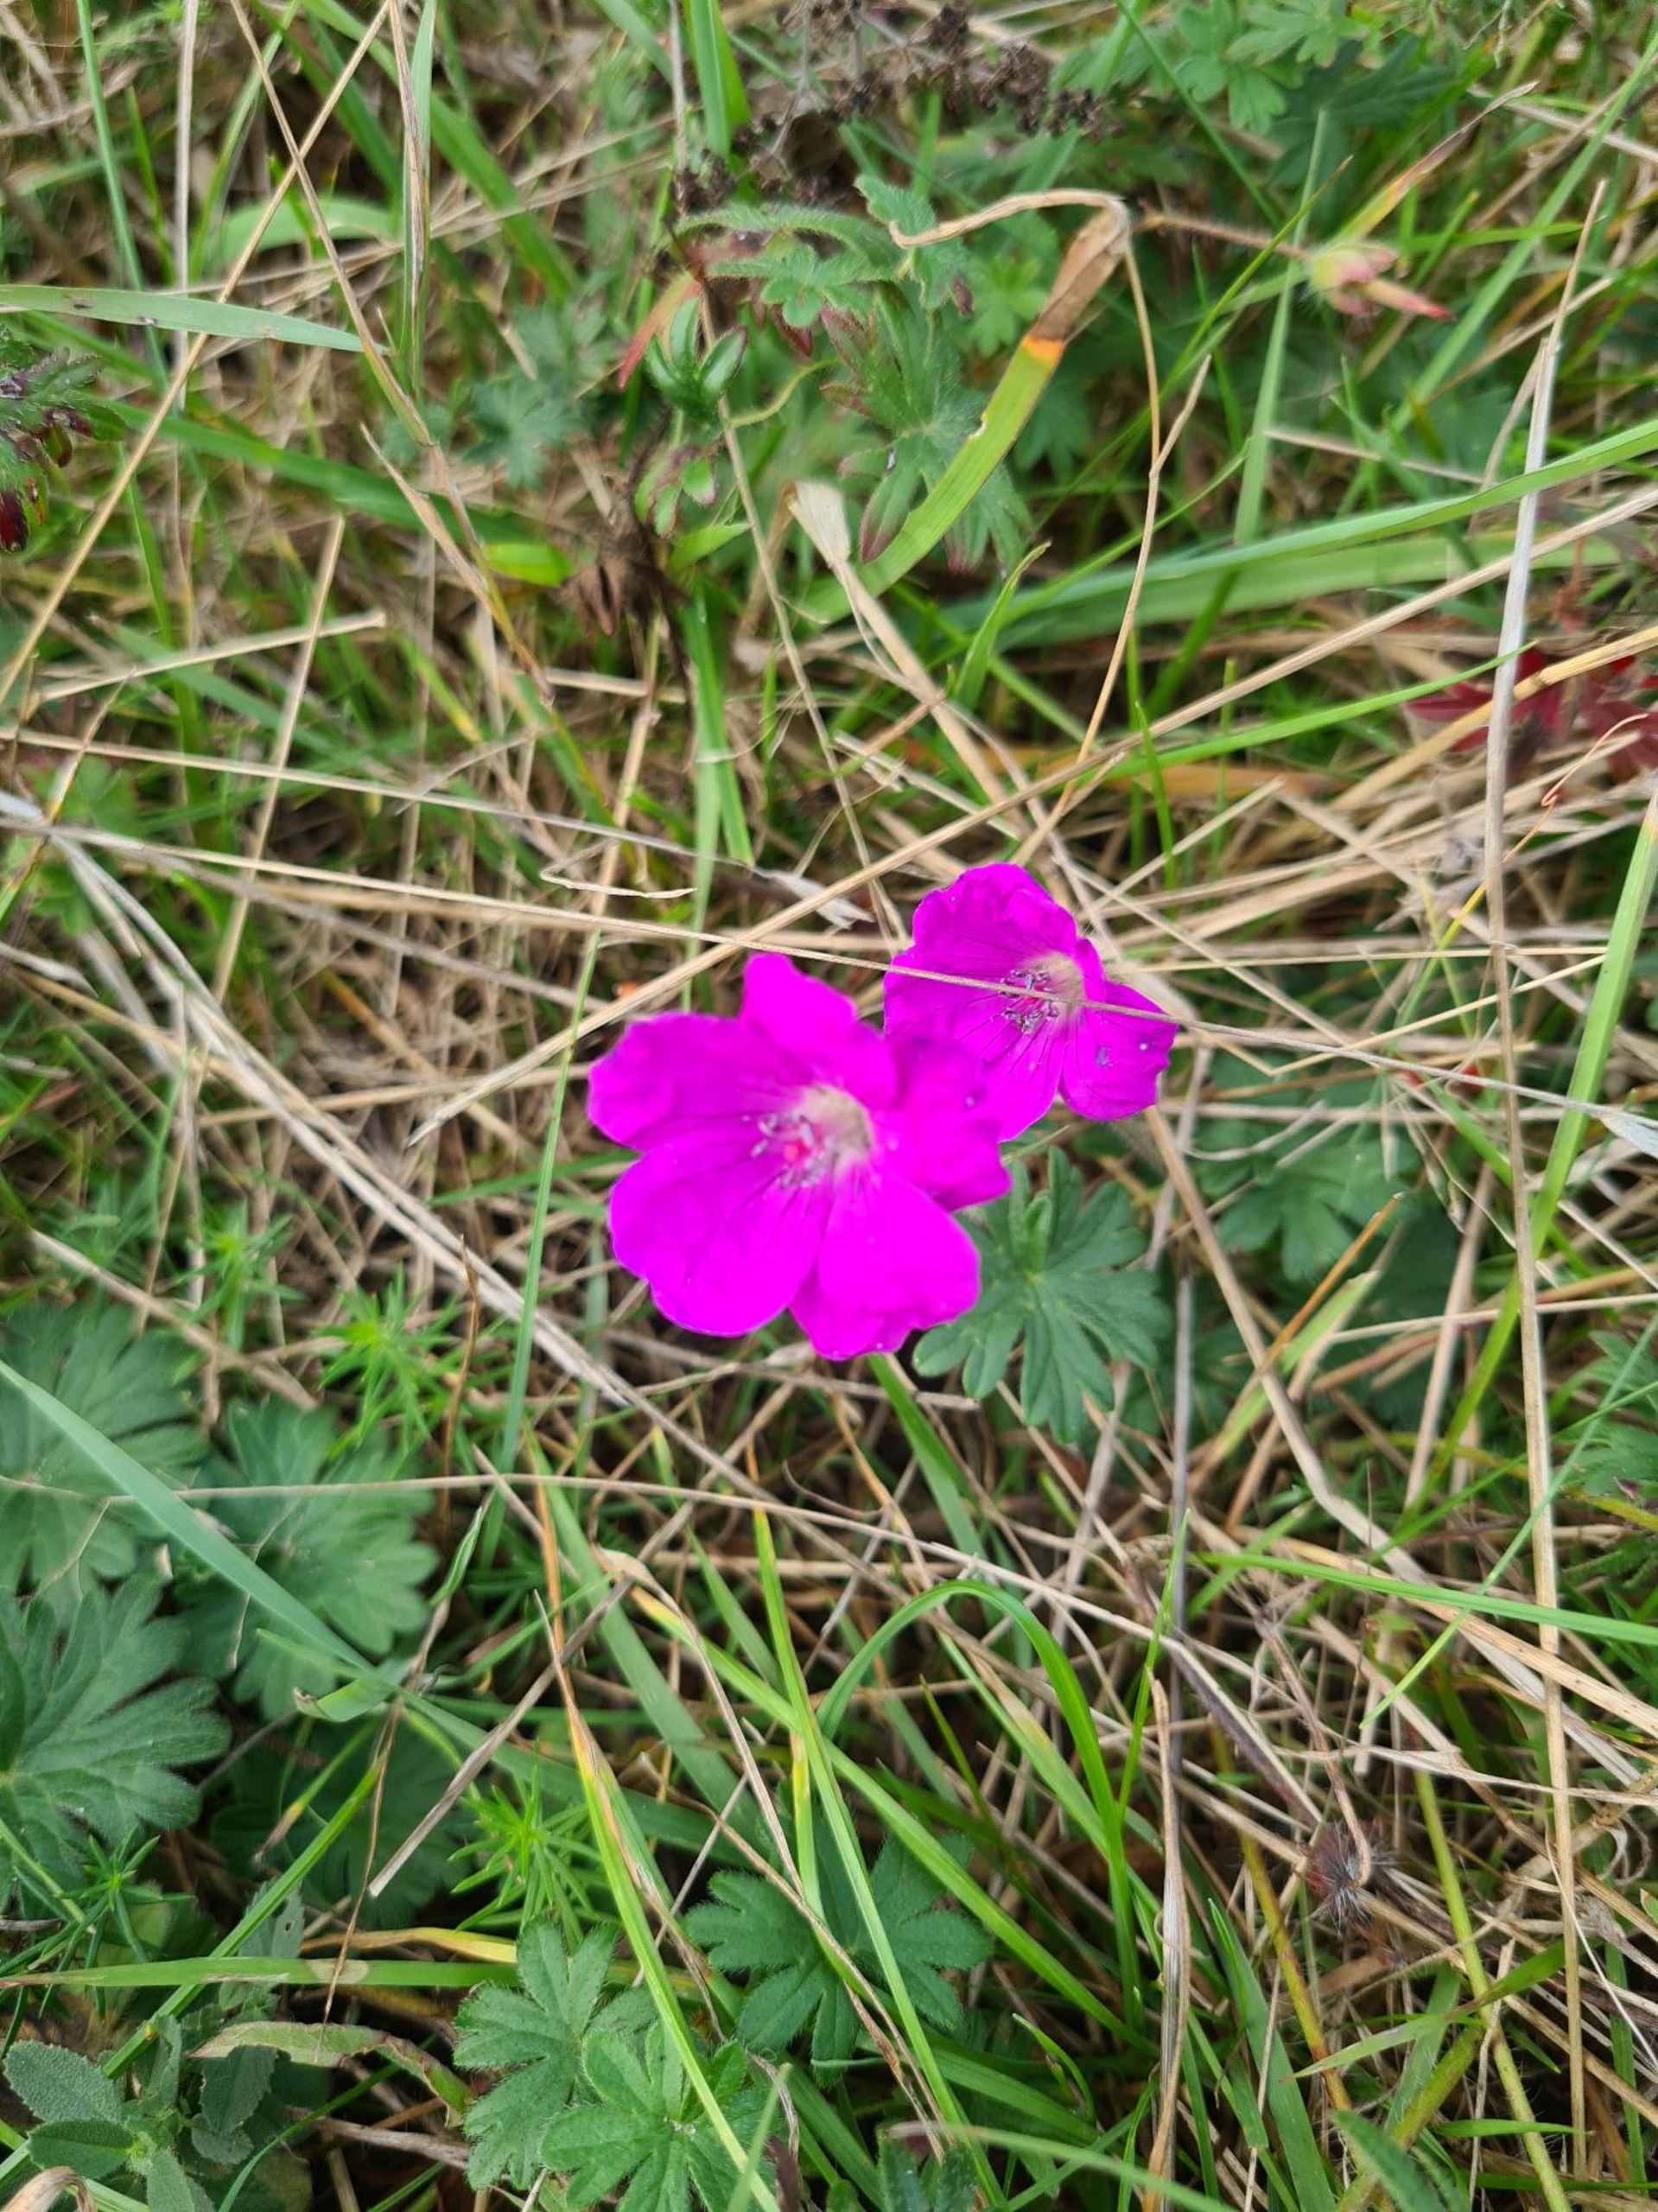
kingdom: Plantae
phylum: Tracheophyta
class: Magnoliopsida
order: Geraniales
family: Geraniaceae
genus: Geranium
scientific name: Geranium sanguineum
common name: Blodrød storkenæb
